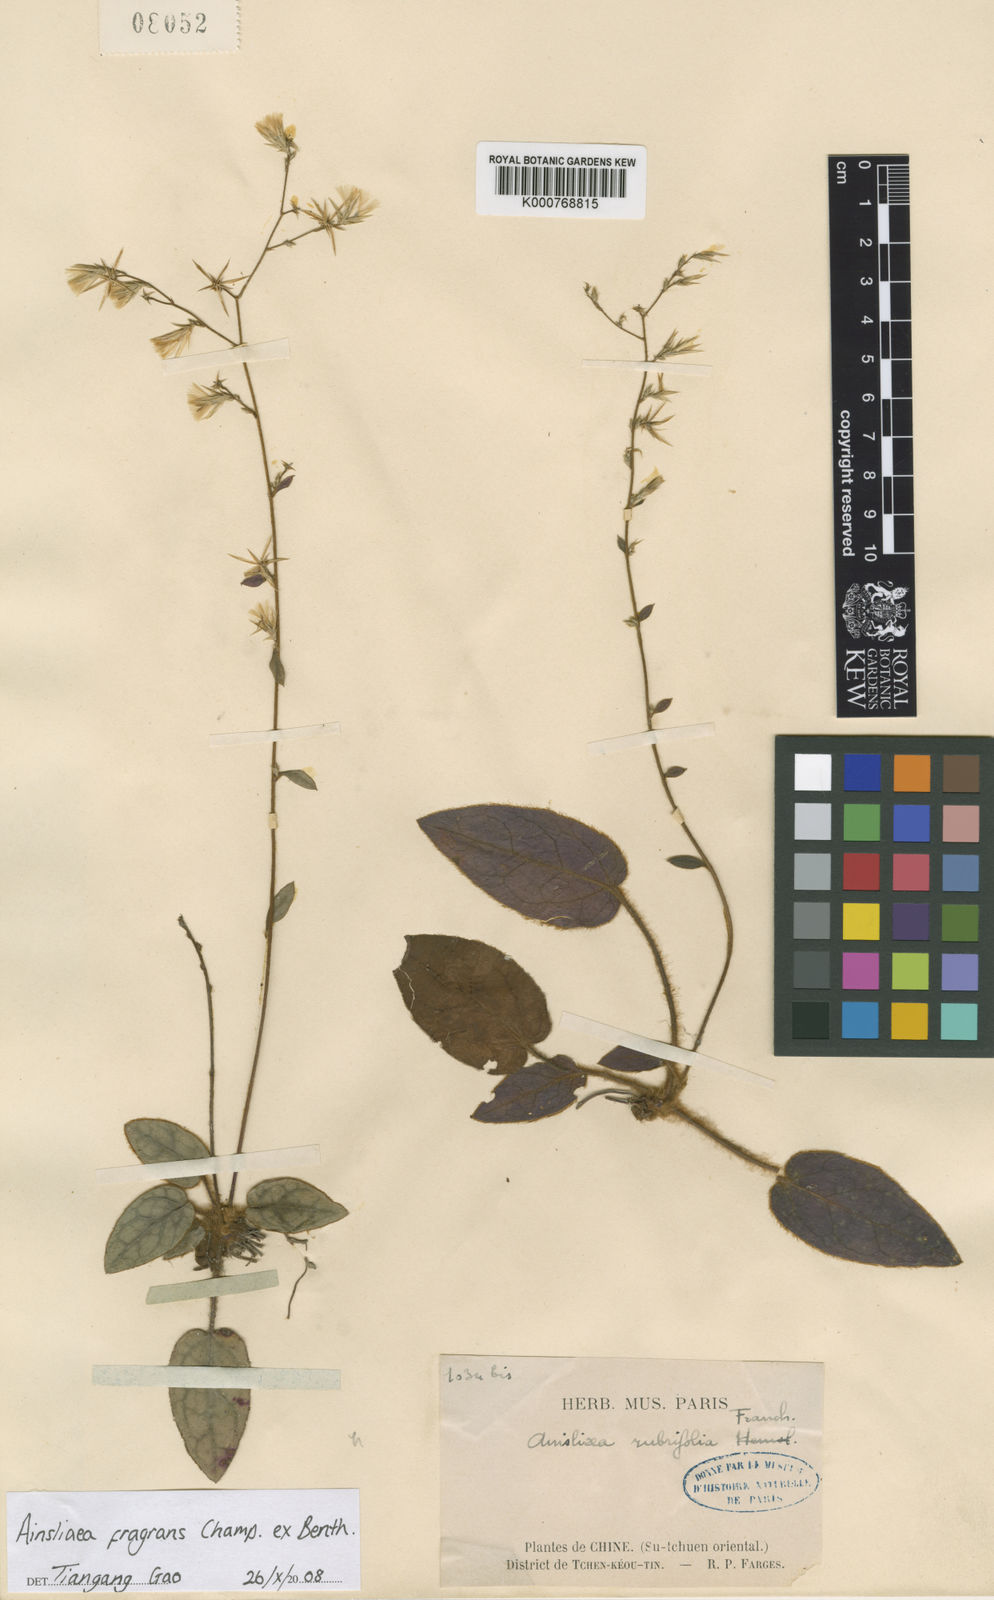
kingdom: Plantae
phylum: Tracheophyta
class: Magnoliopsida
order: Asterales
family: Asteraceae
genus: Ainsliaea
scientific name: Ainsliaea fragrans
